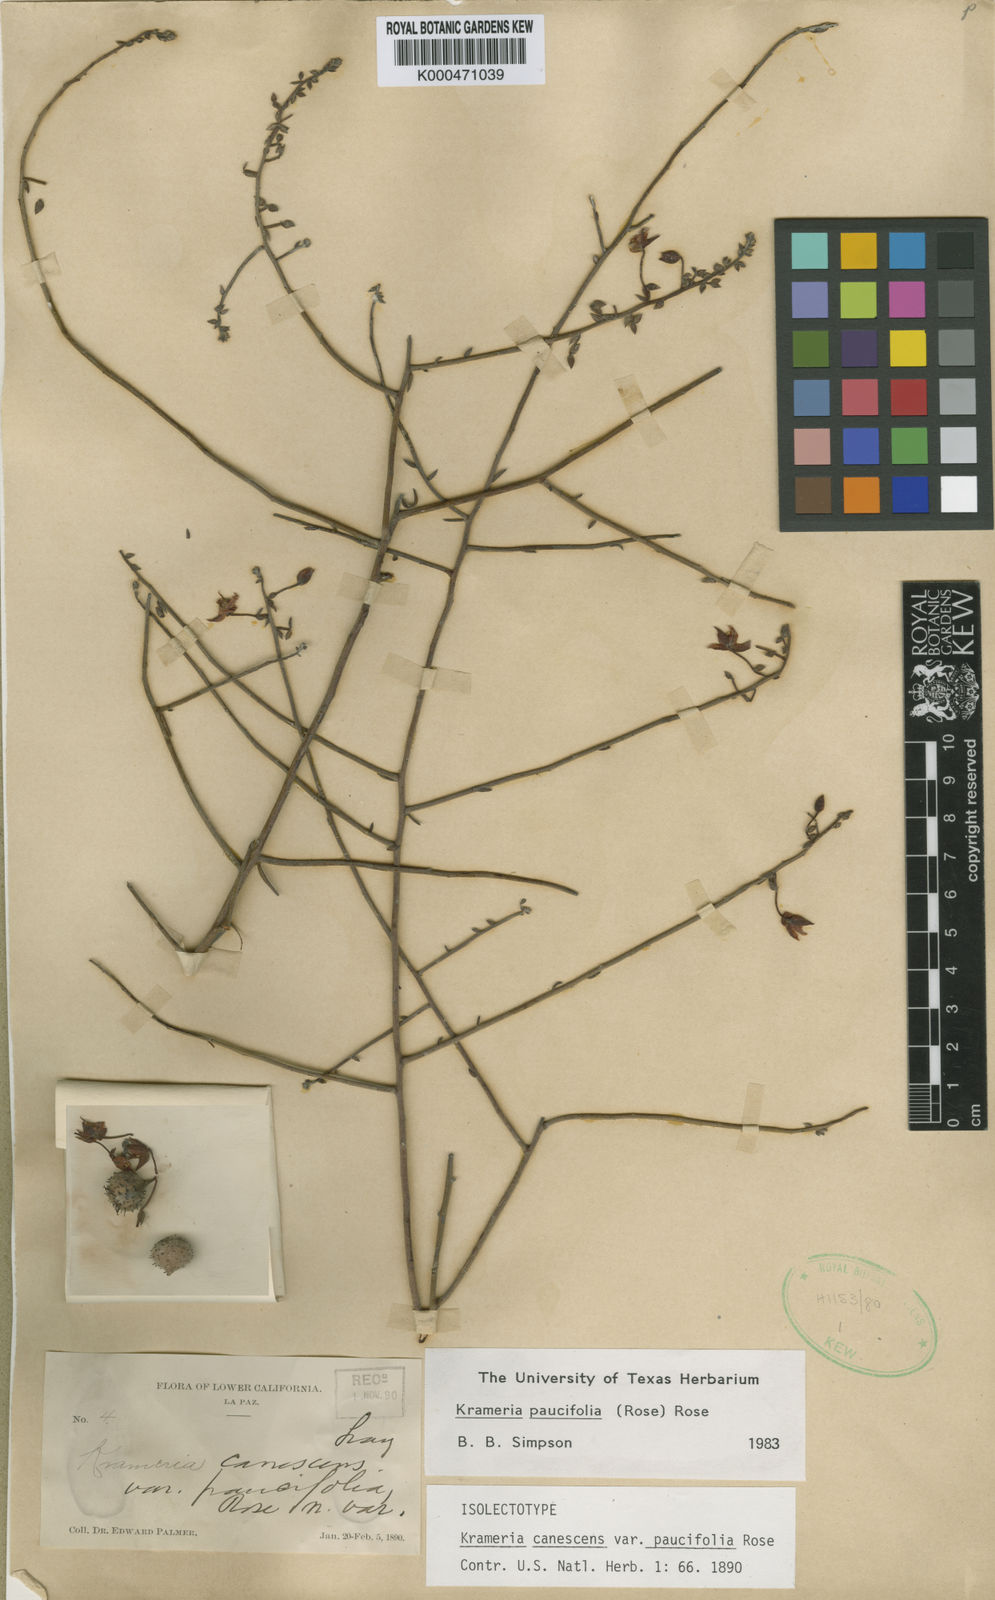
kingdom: Plantae
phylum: Tracheophyta
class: Magnoliopsida
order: Zygophyllales
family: Krameriaceae
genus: Krameria
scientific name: Krameria paucifolia
